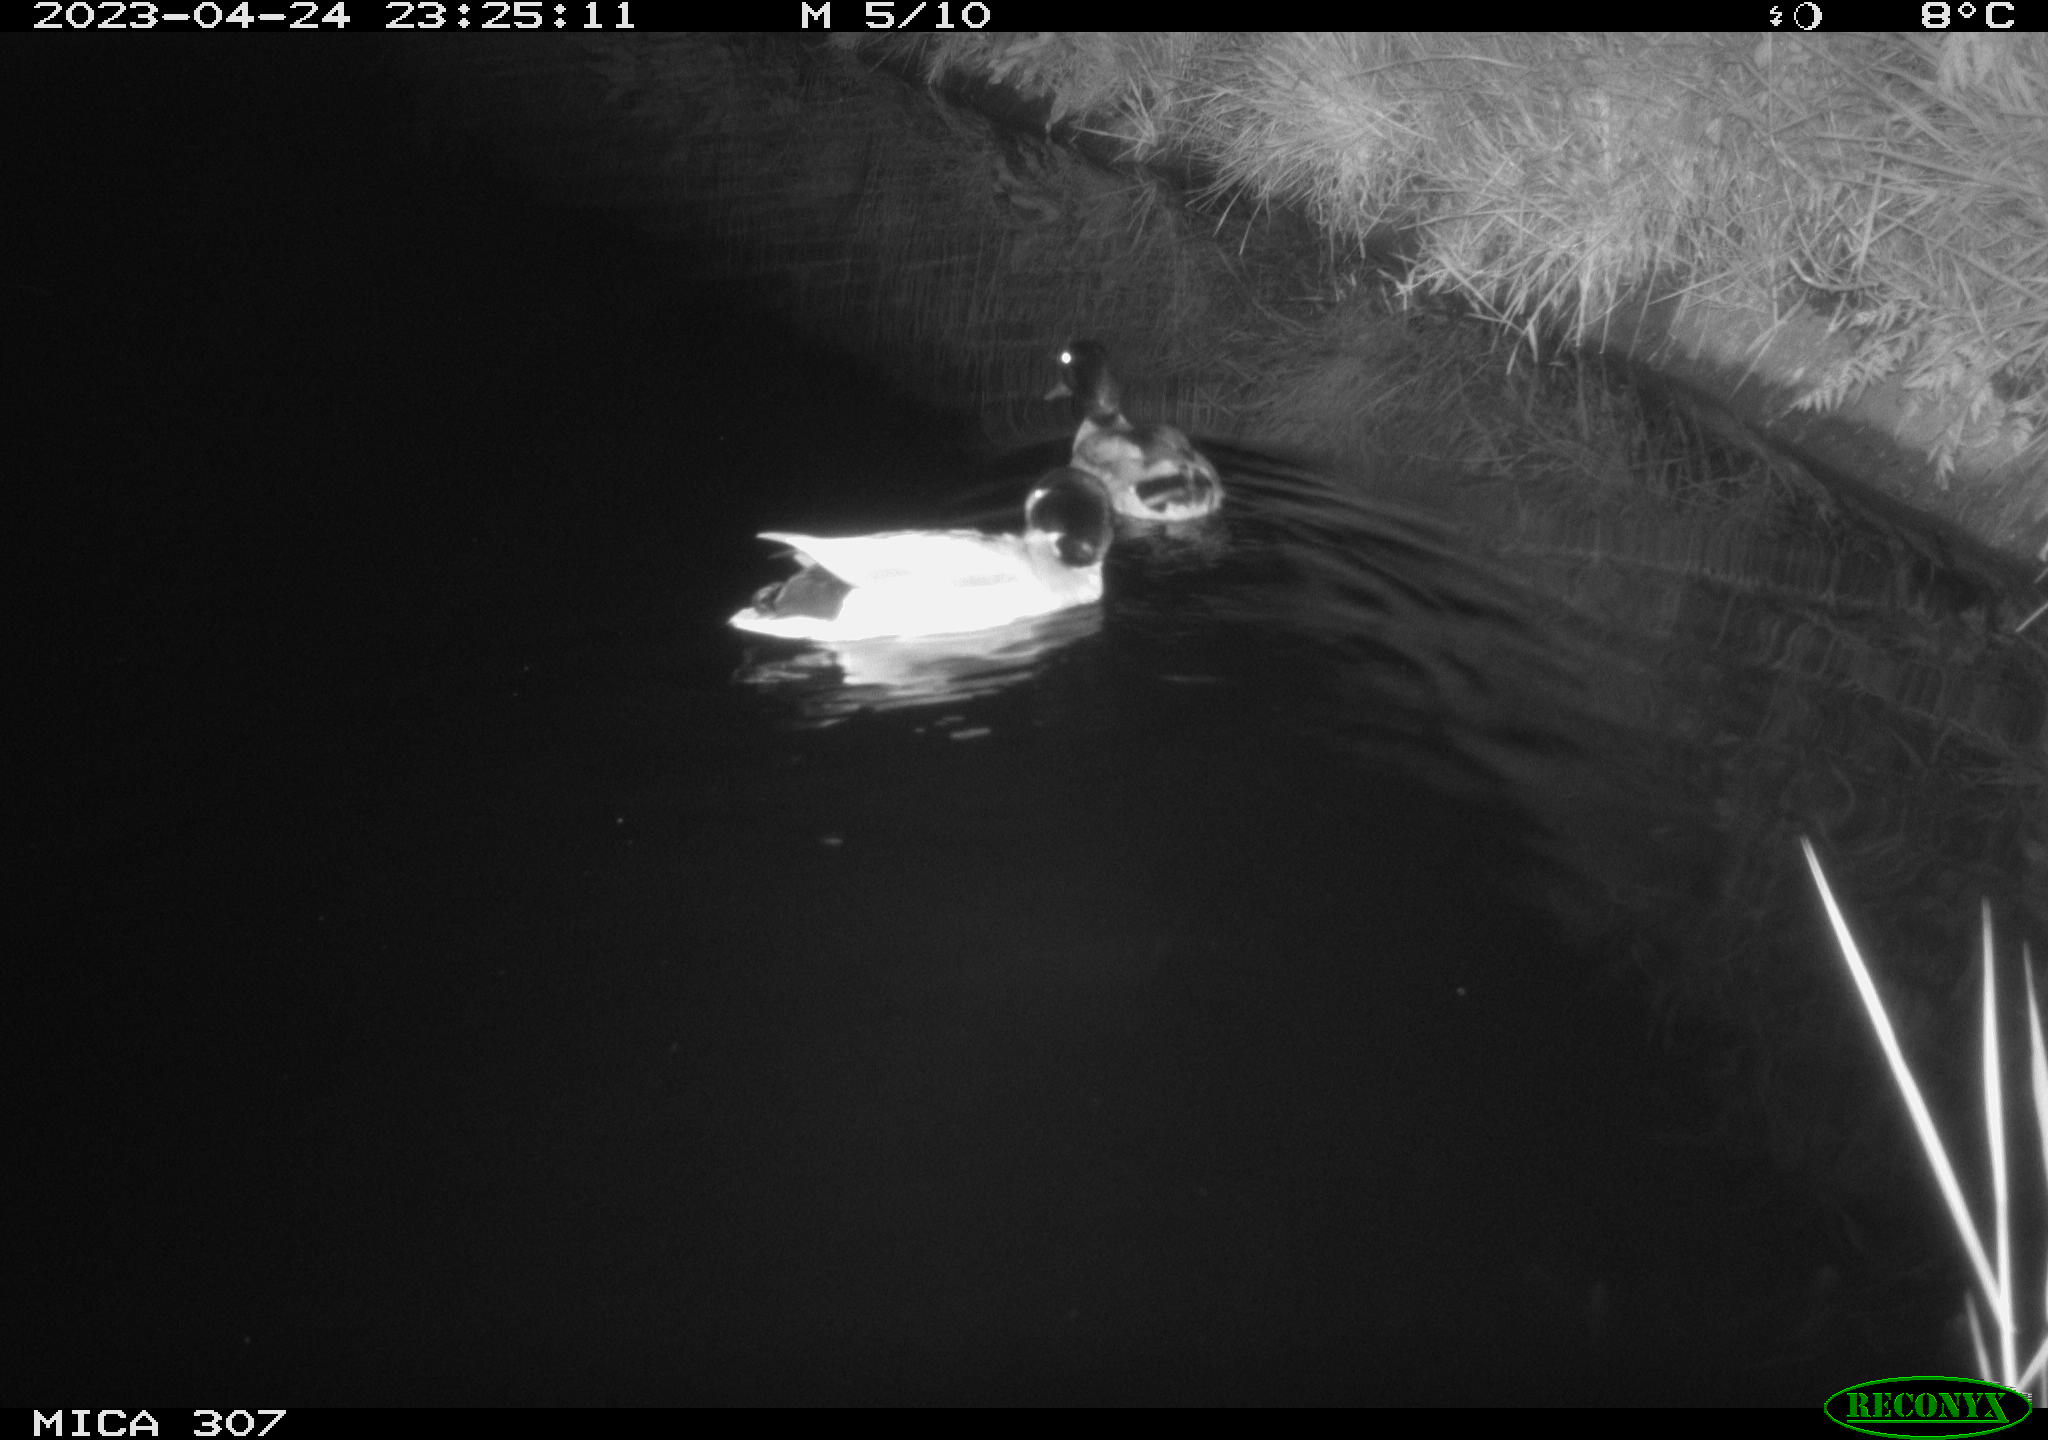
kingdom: Animalia
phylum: Chordata
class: Aves
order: Anseriformes
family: Anatidae
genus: Anas
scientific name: Anas
